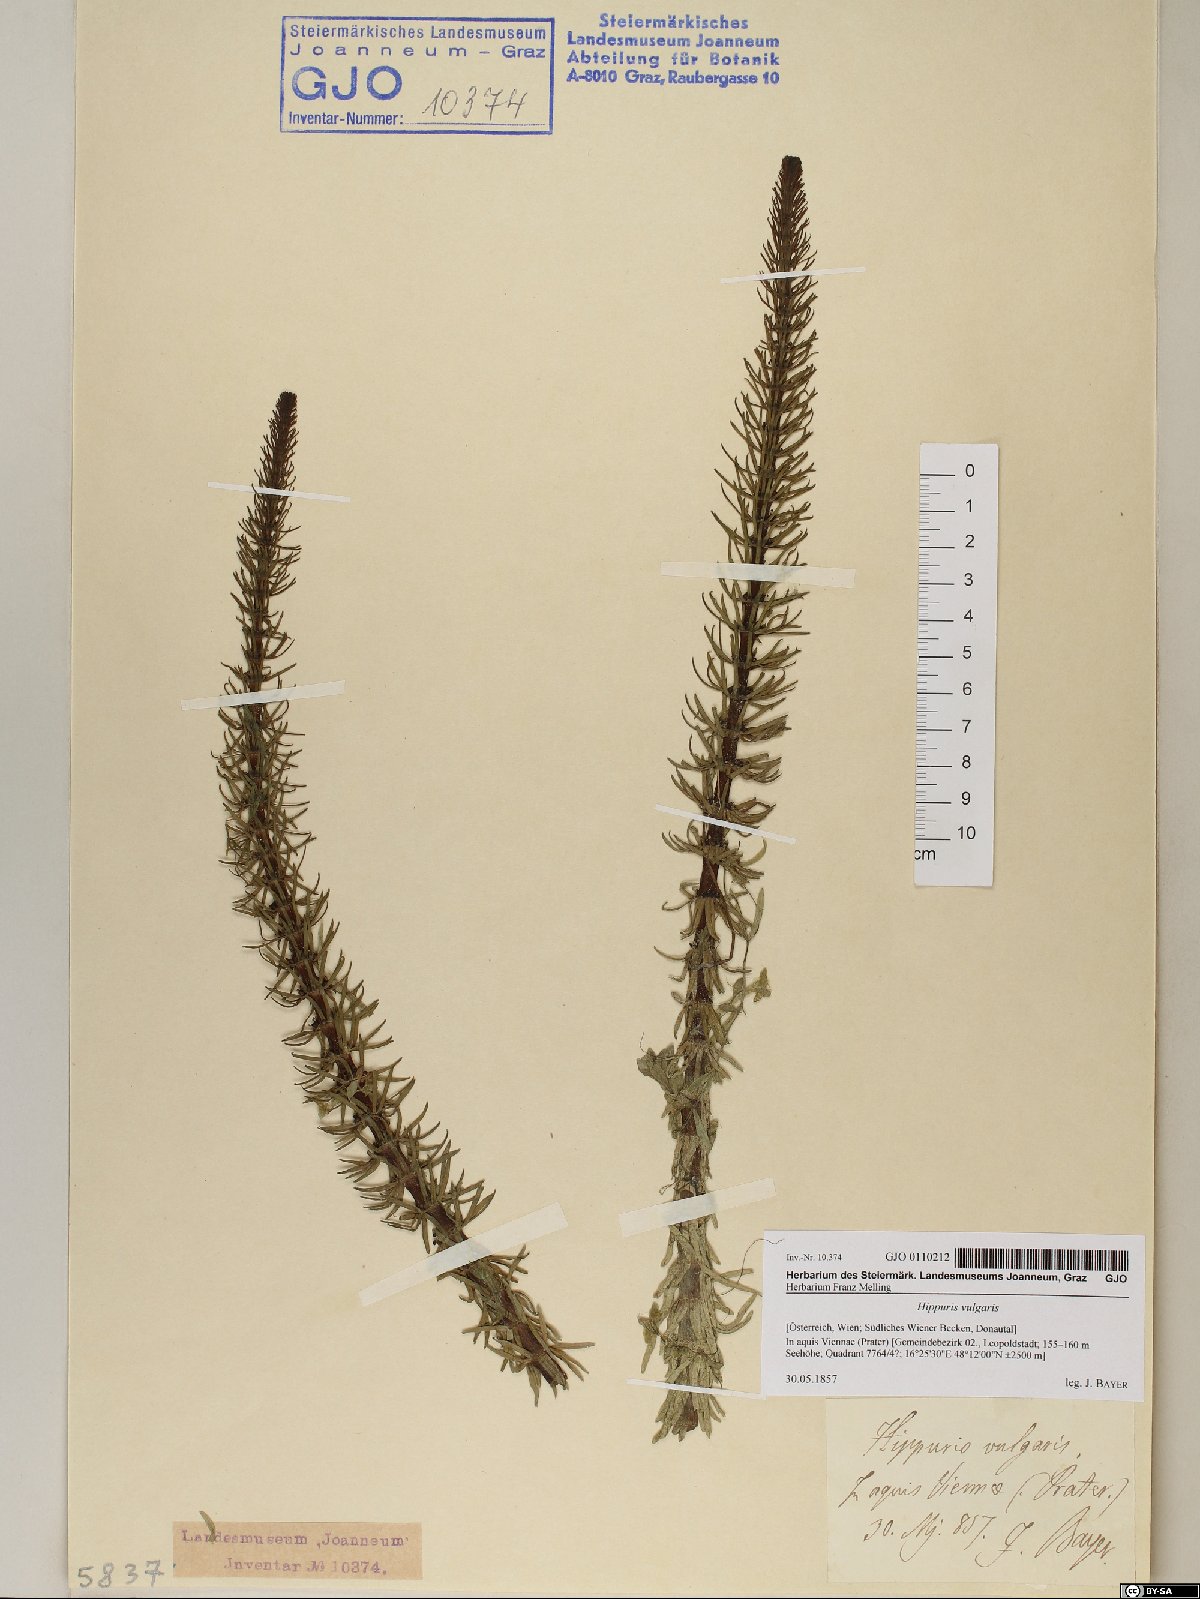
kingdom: Plantae
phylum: Tracheophyta
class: Magnoliopsida
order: Lamiales
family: Plantaginaceae
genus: Hippuris
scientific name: Hippuris vulgaris
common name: Mare's-tail
